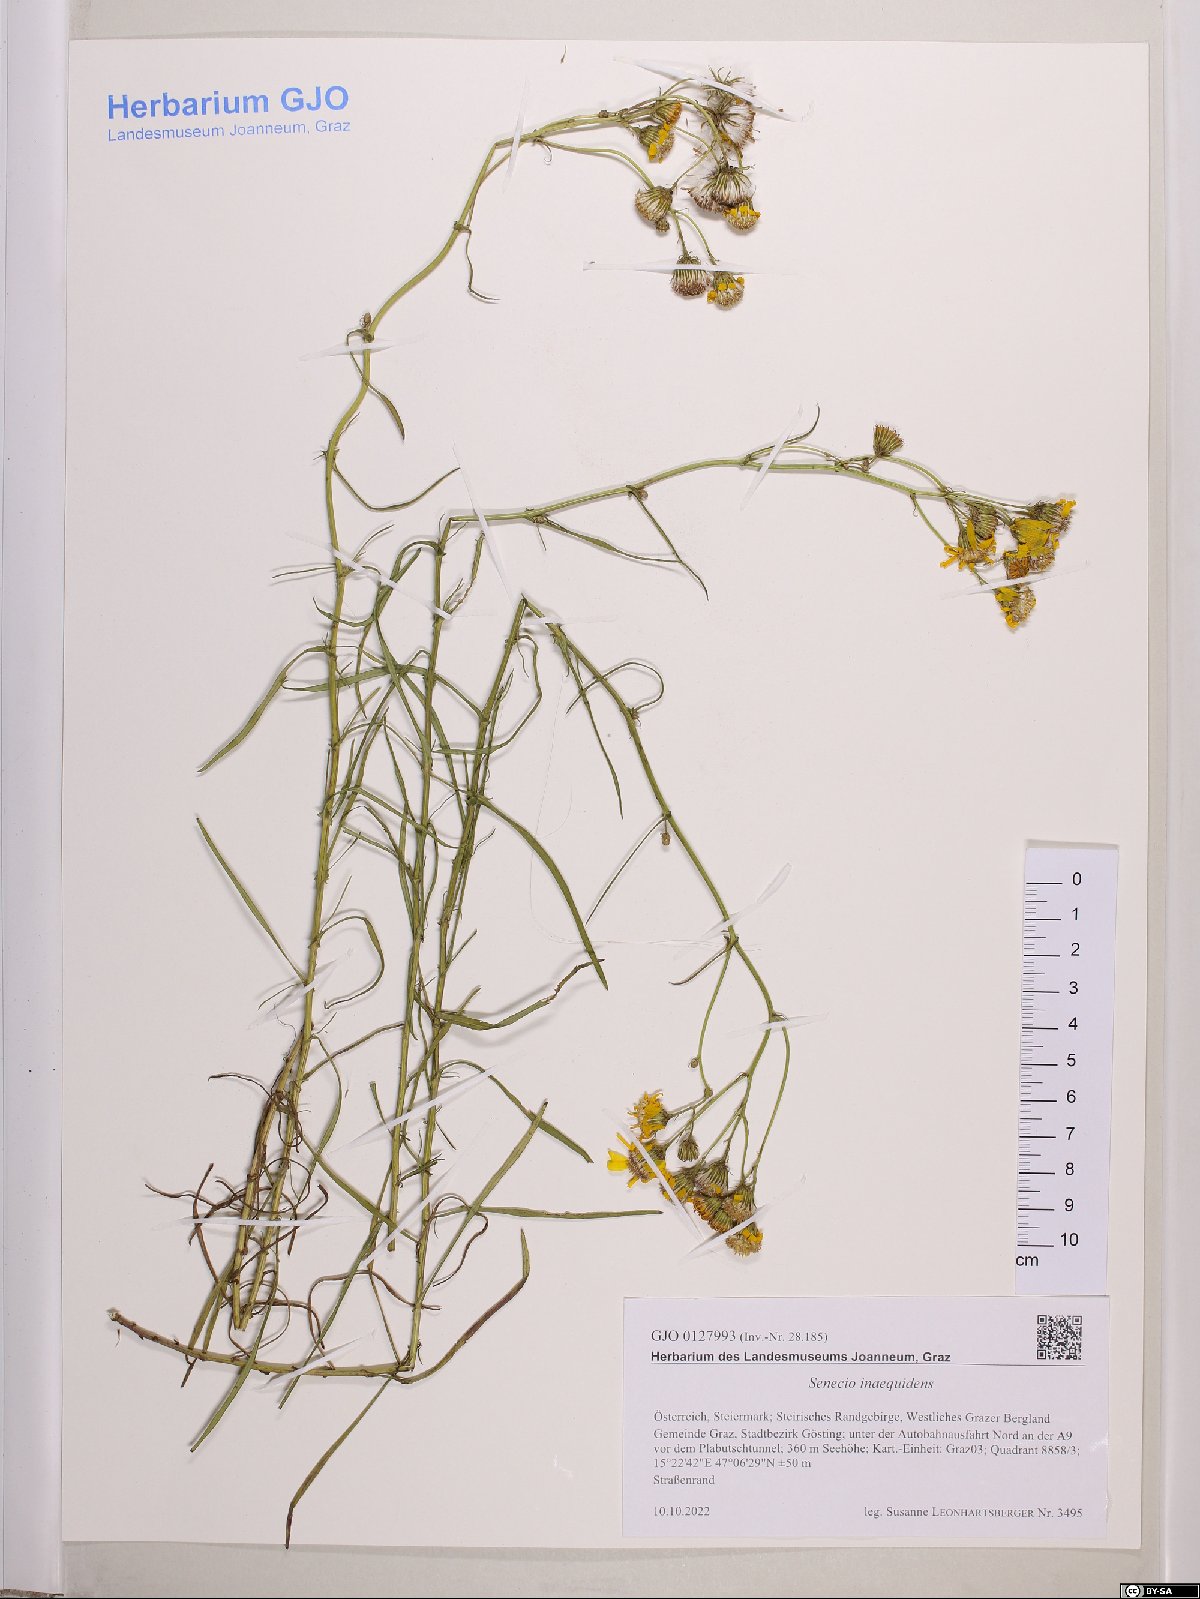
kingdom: Plantae
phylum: Tracheophyta
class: Magnoliopsida
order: Asterales
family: Asteraceae
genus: Senecio
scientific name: Senecio inaequidens
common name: Narrow-leaved ragwort
